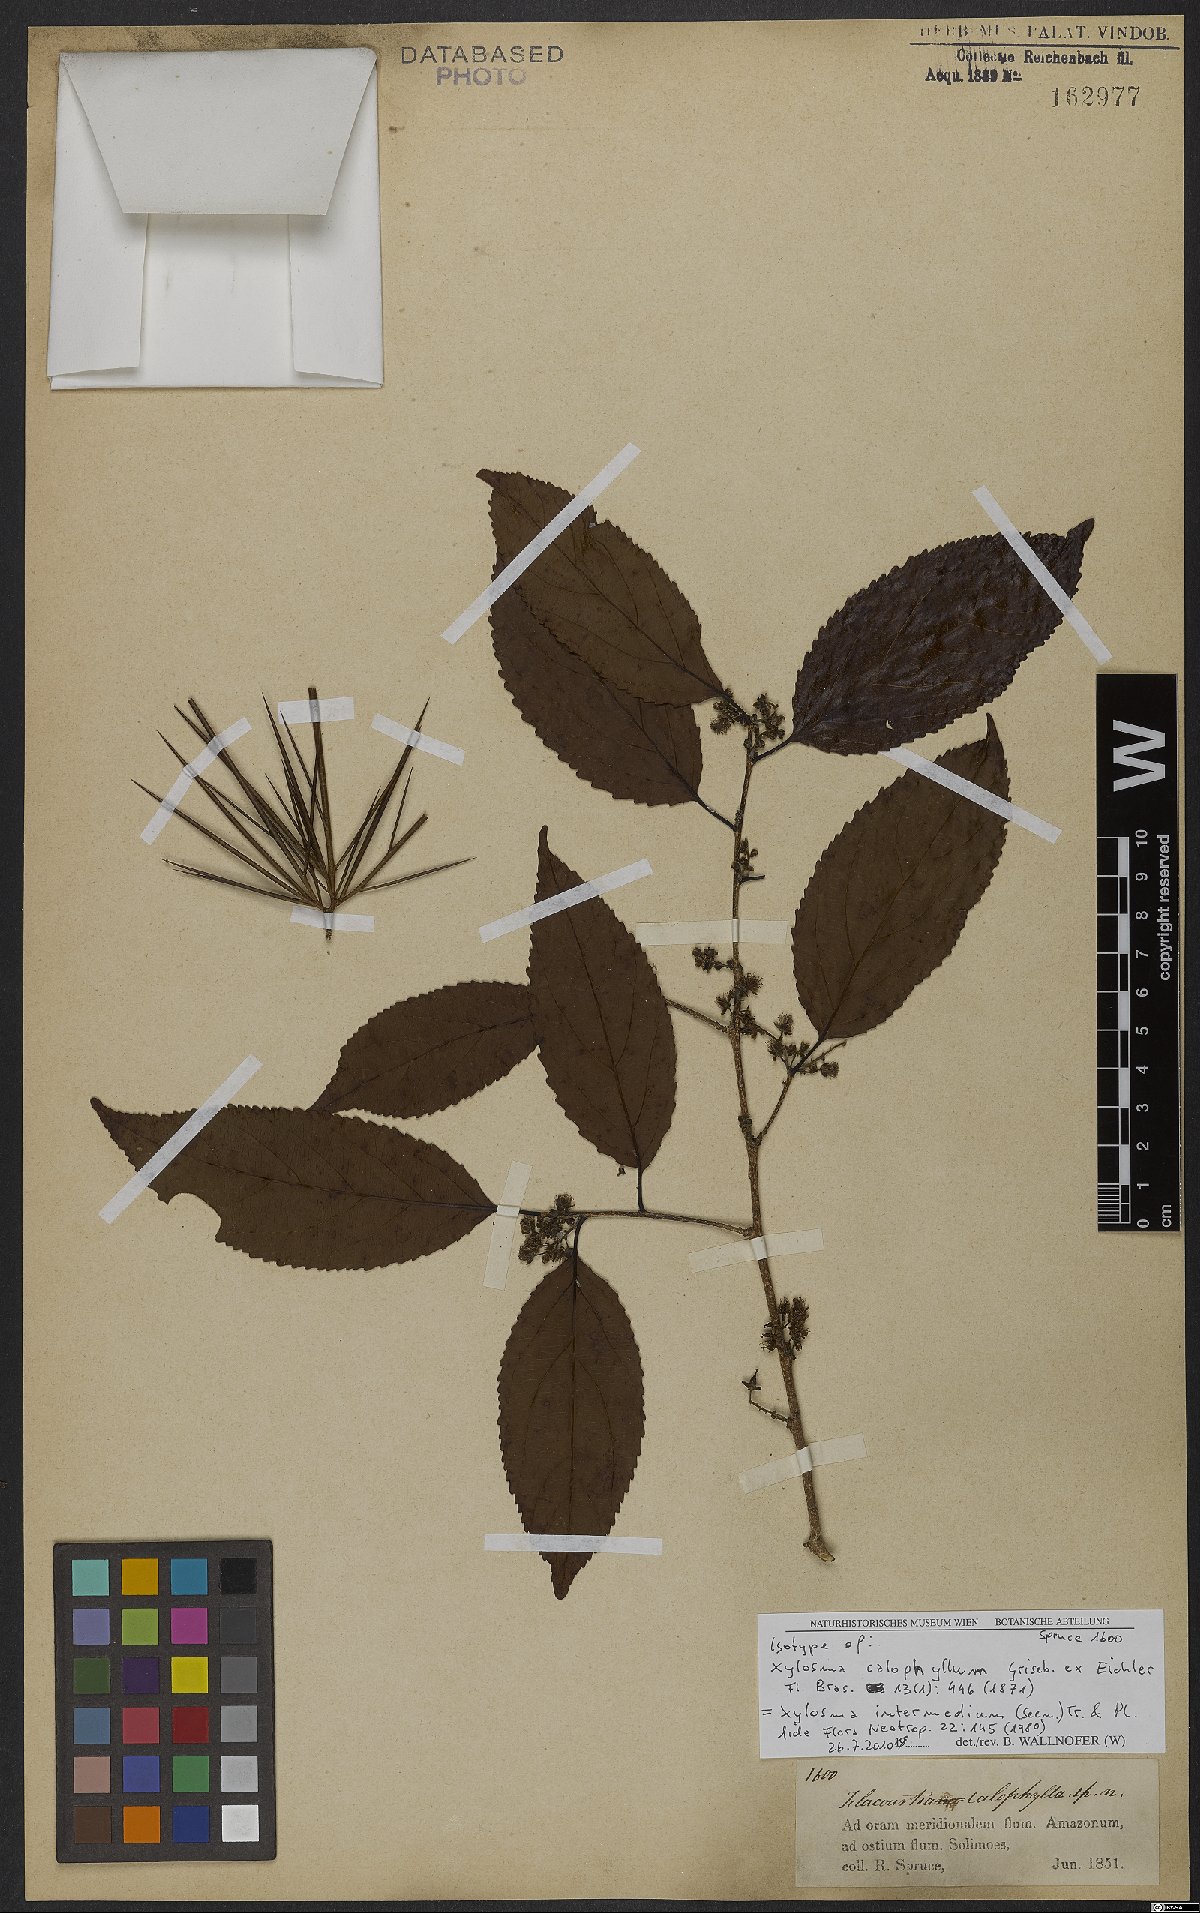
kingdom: Plantae
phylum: Tracheophyta
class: Magnoliopsida
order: Malpighiales
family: Salicaceae
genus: Xylosma
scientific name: Xylosma intermedia
